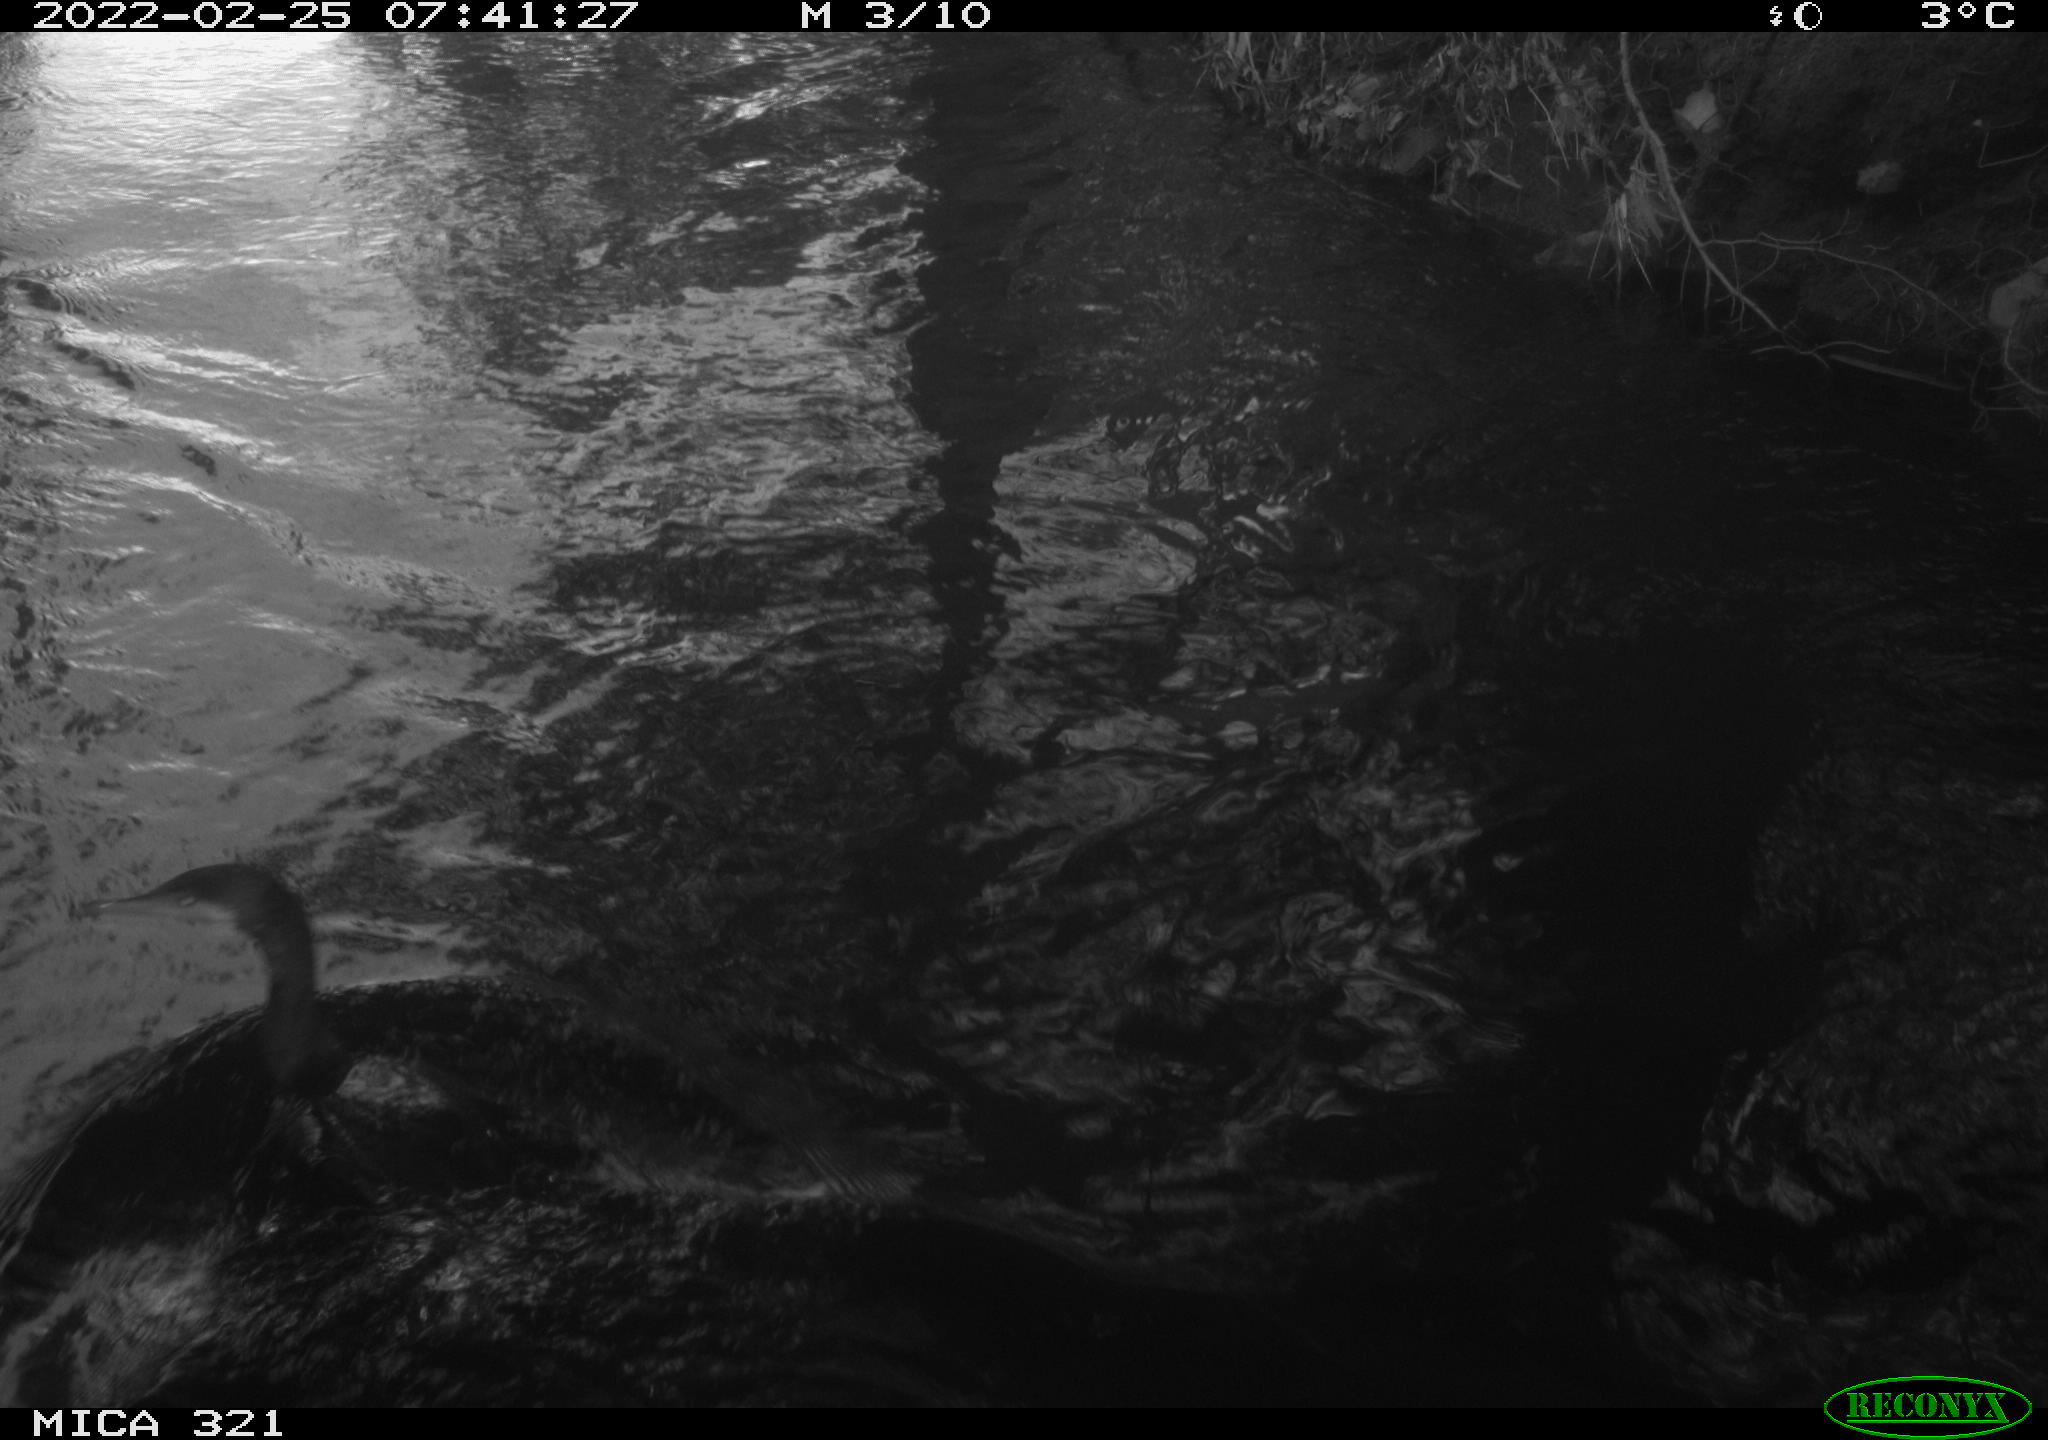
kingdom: Animalia
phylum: Chordata
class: Aves
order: Suliformes
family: Phalacrocoracidae
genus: Phalacrocorax
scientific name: Phalacrocorax carbo
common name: Great cormorant
